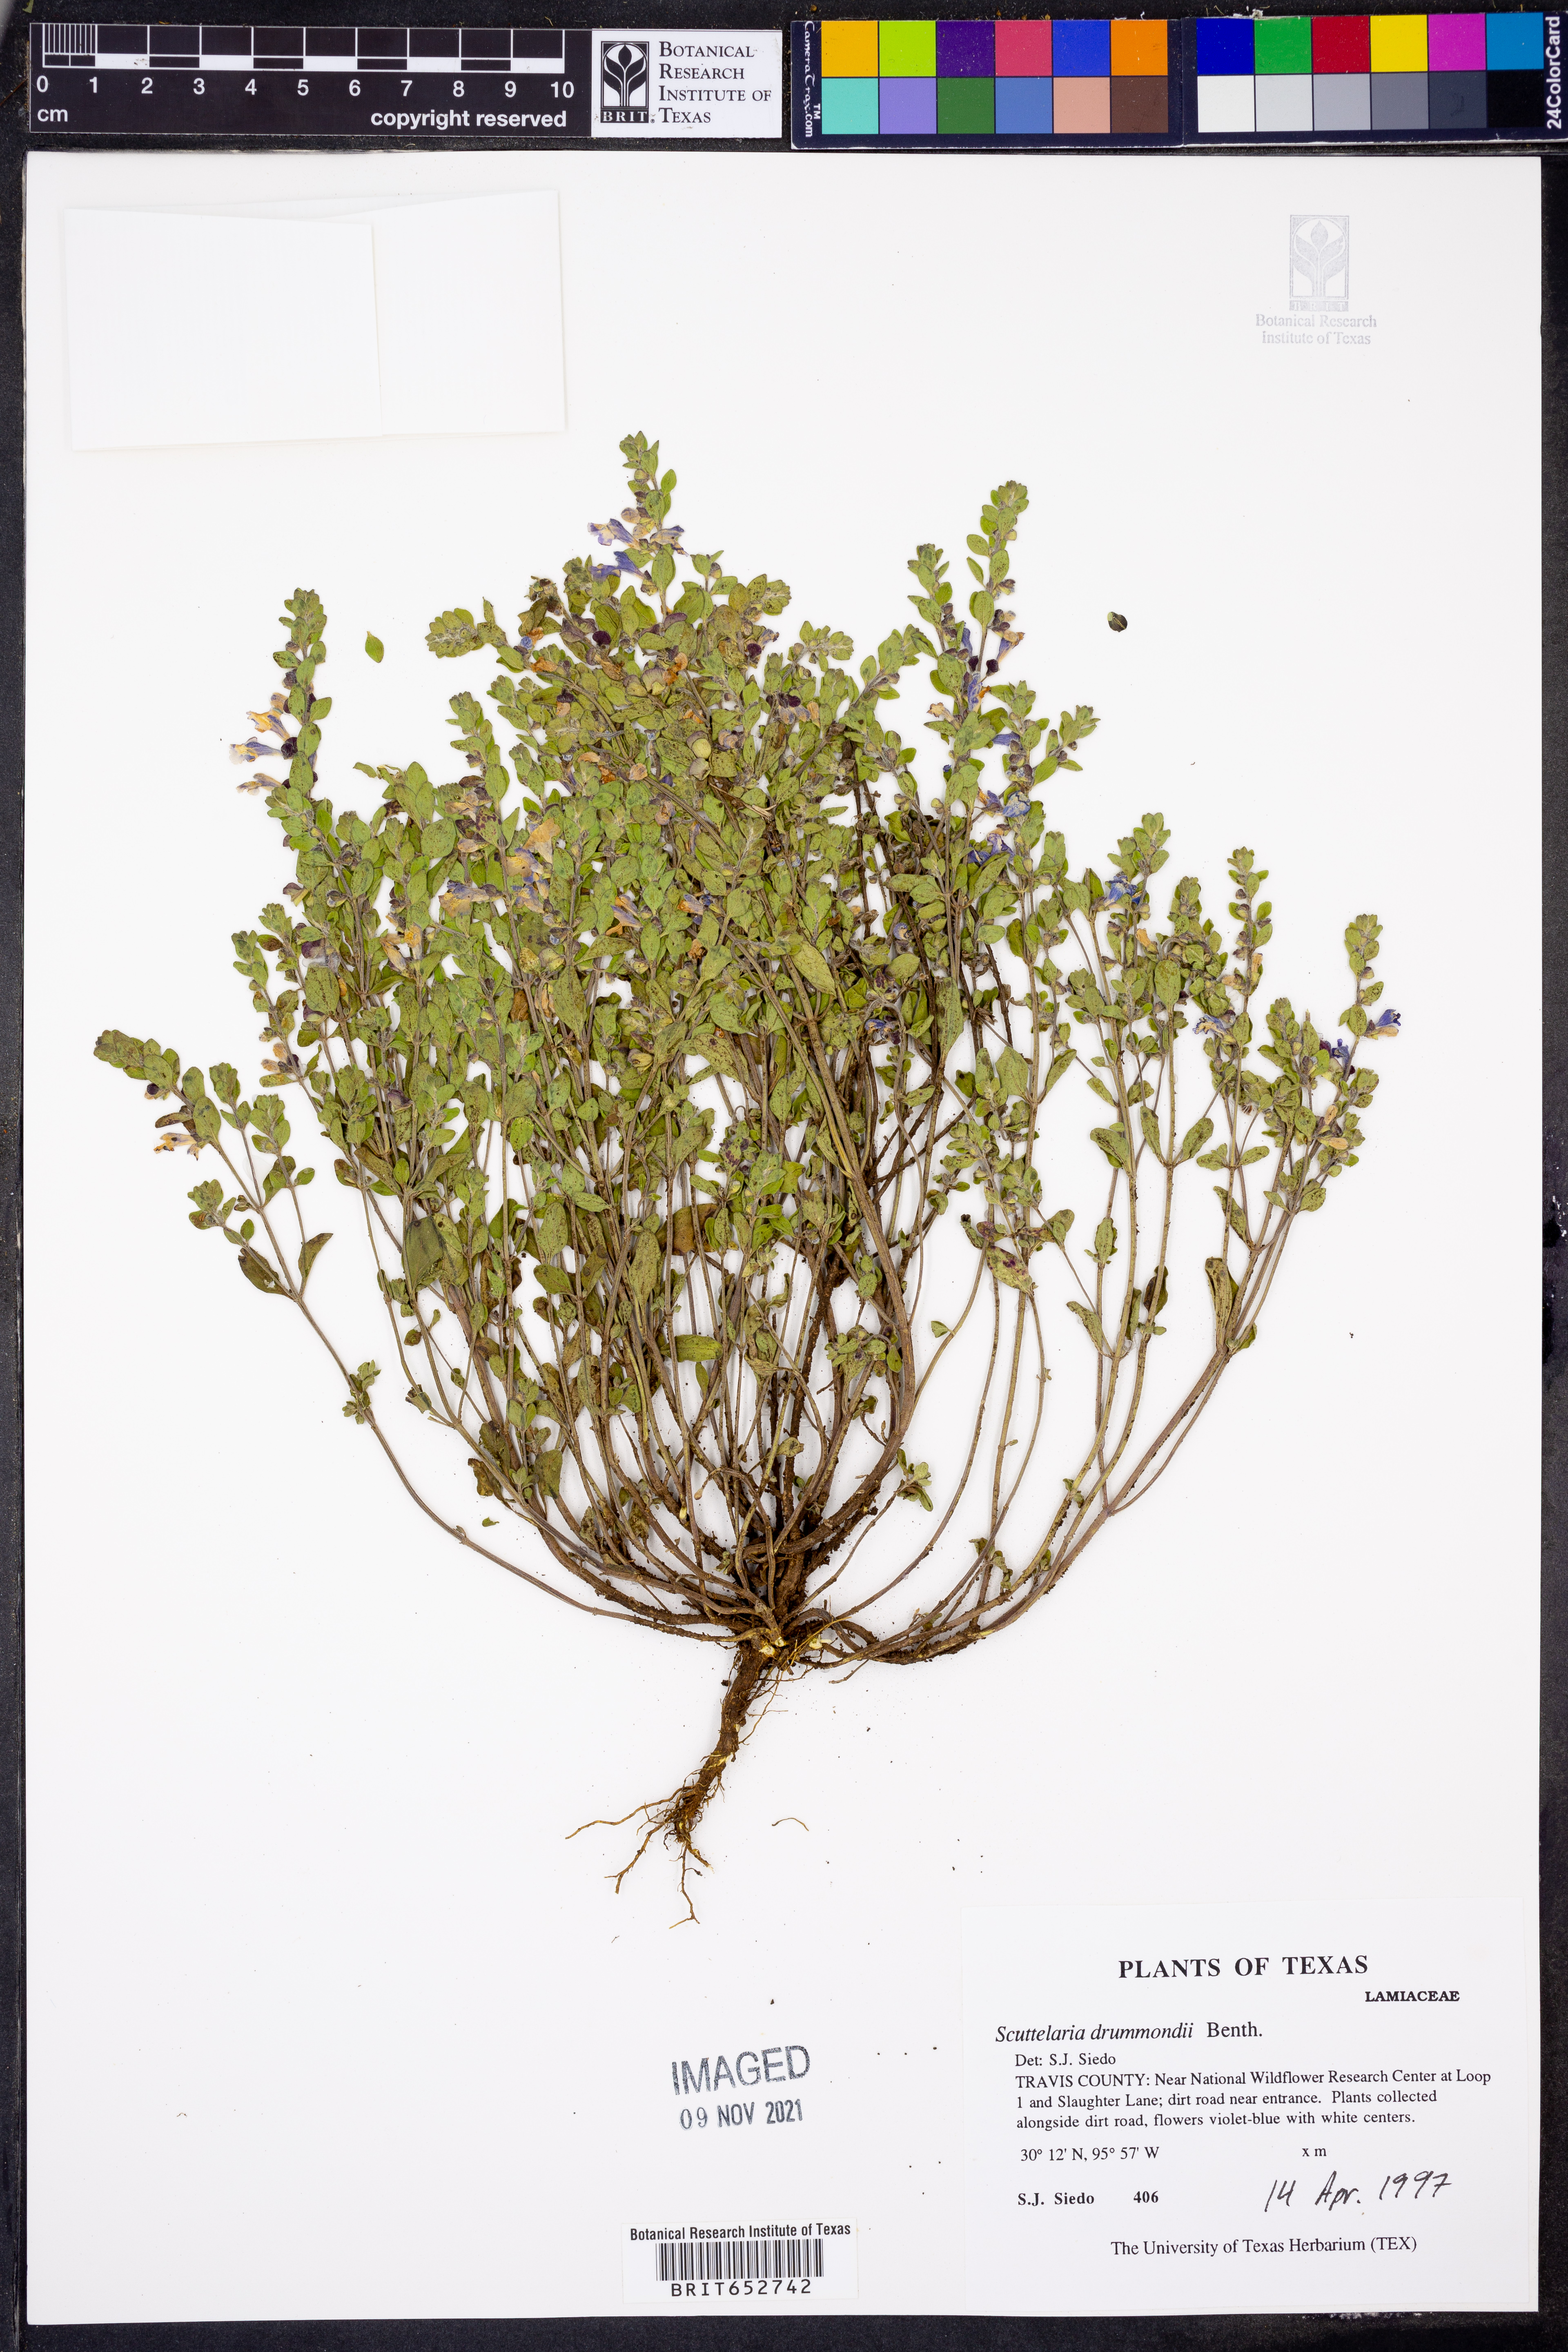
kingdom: Plantae
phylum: Tracheophyta
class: Magnoliopsida
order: Lamiales
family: Lamiaceae
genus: Scutellaria
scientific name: Scutellaria drummondii
